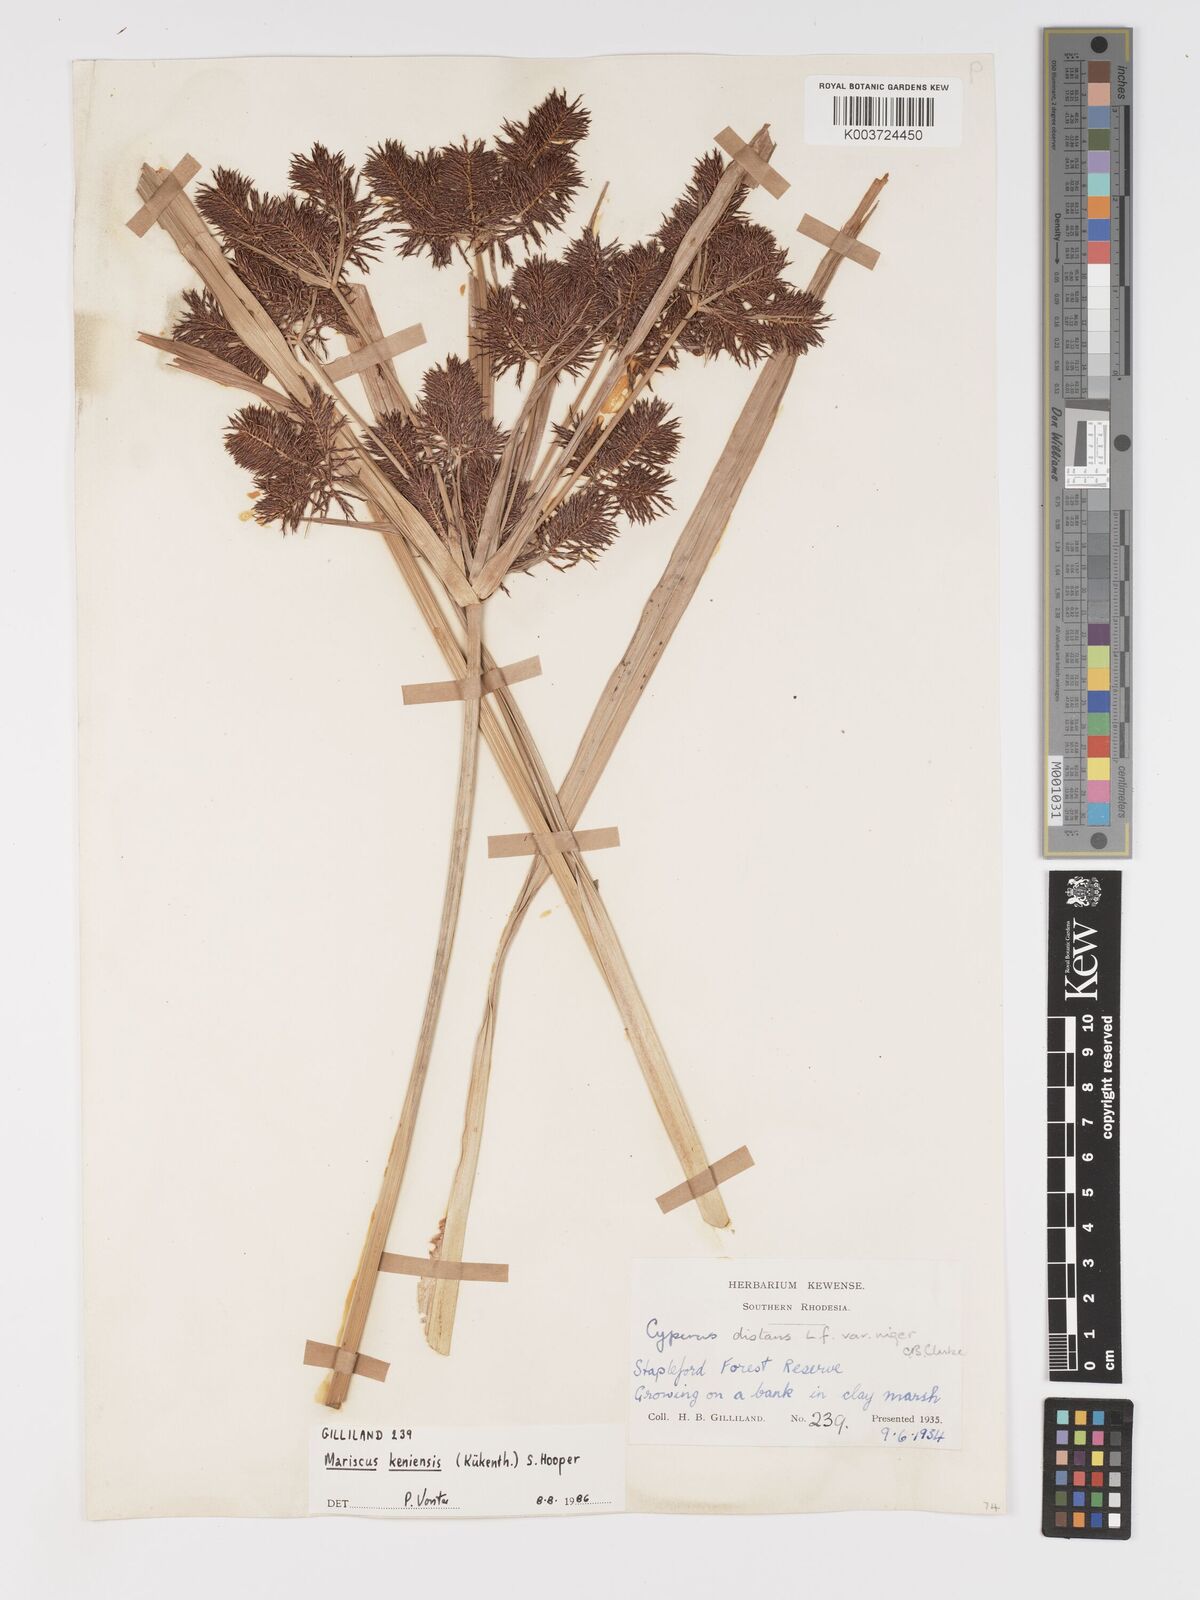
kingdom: Plantae
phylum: Tracheophyta
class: Liliopsida
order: Poales
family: Cyperaceae
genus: Cyperus
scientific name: Cyperus
